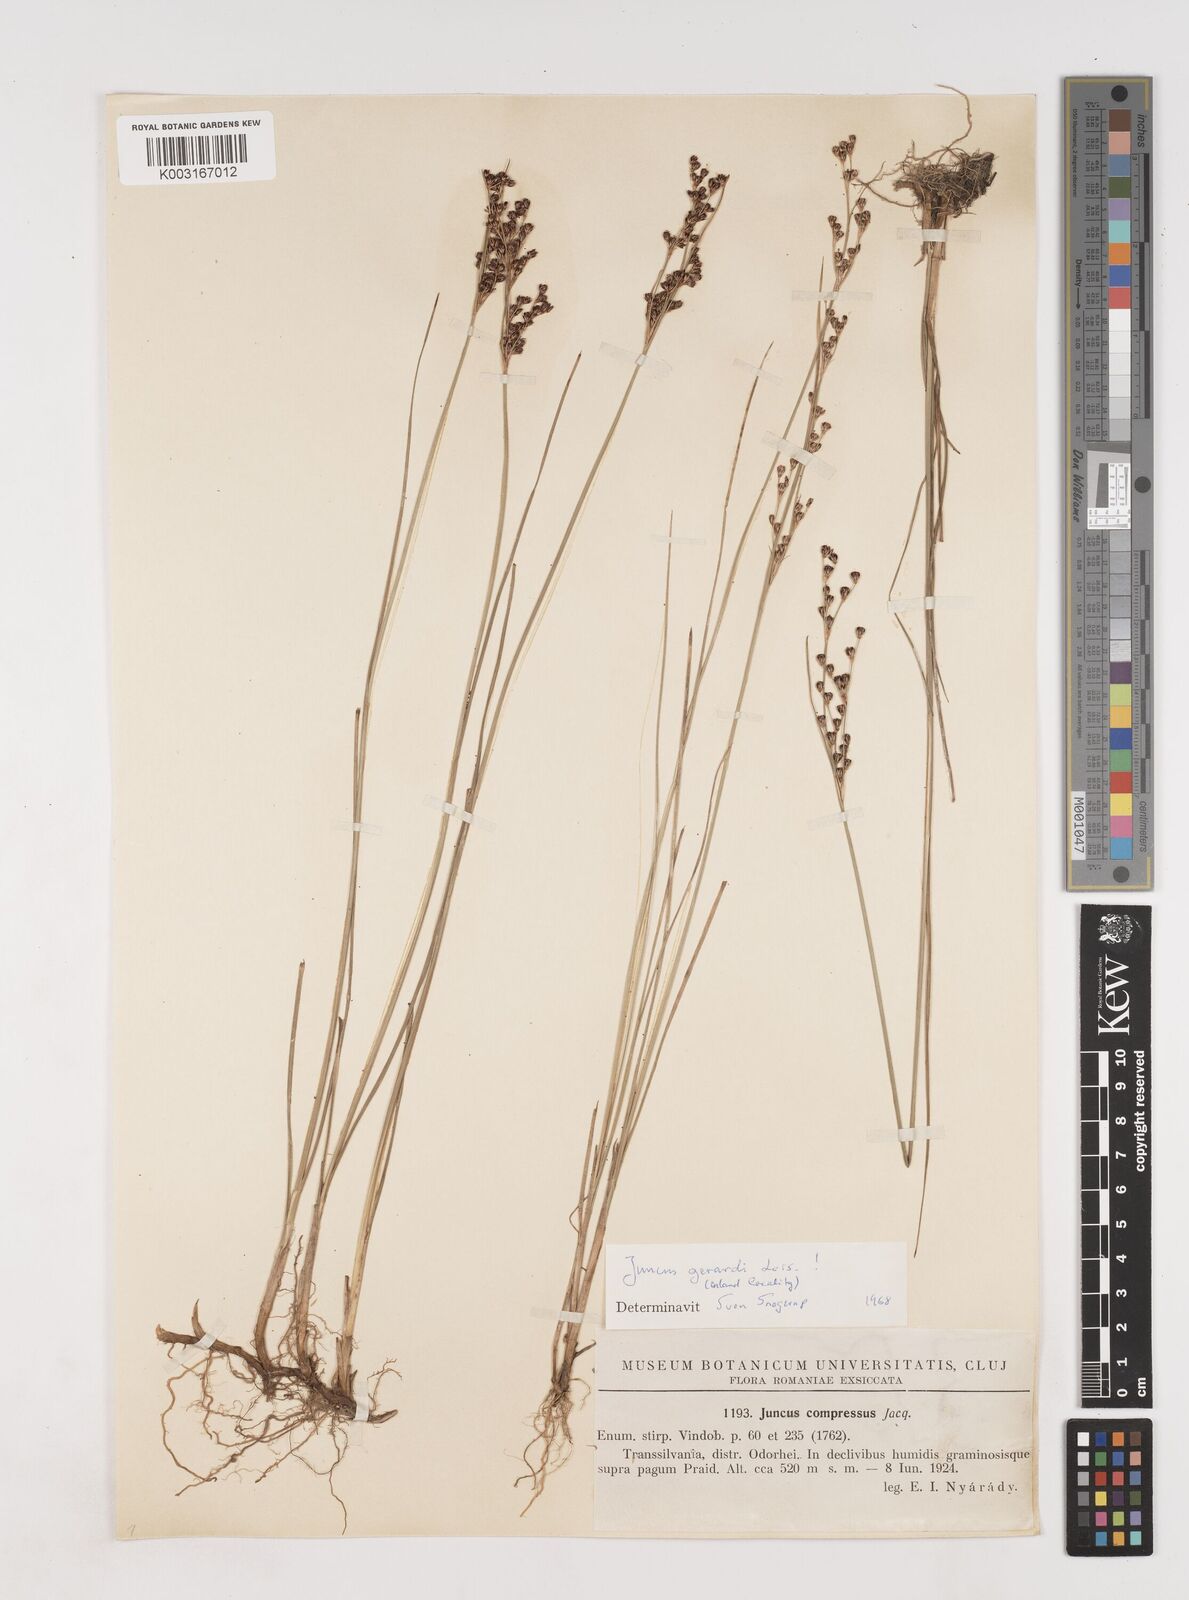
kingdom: Plantae
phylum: Tracheophyta
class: Liliopsida
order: Poales
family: Juncaceae
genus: Juncus
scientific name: Juncus gerardi
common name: Saltmarsh rush
